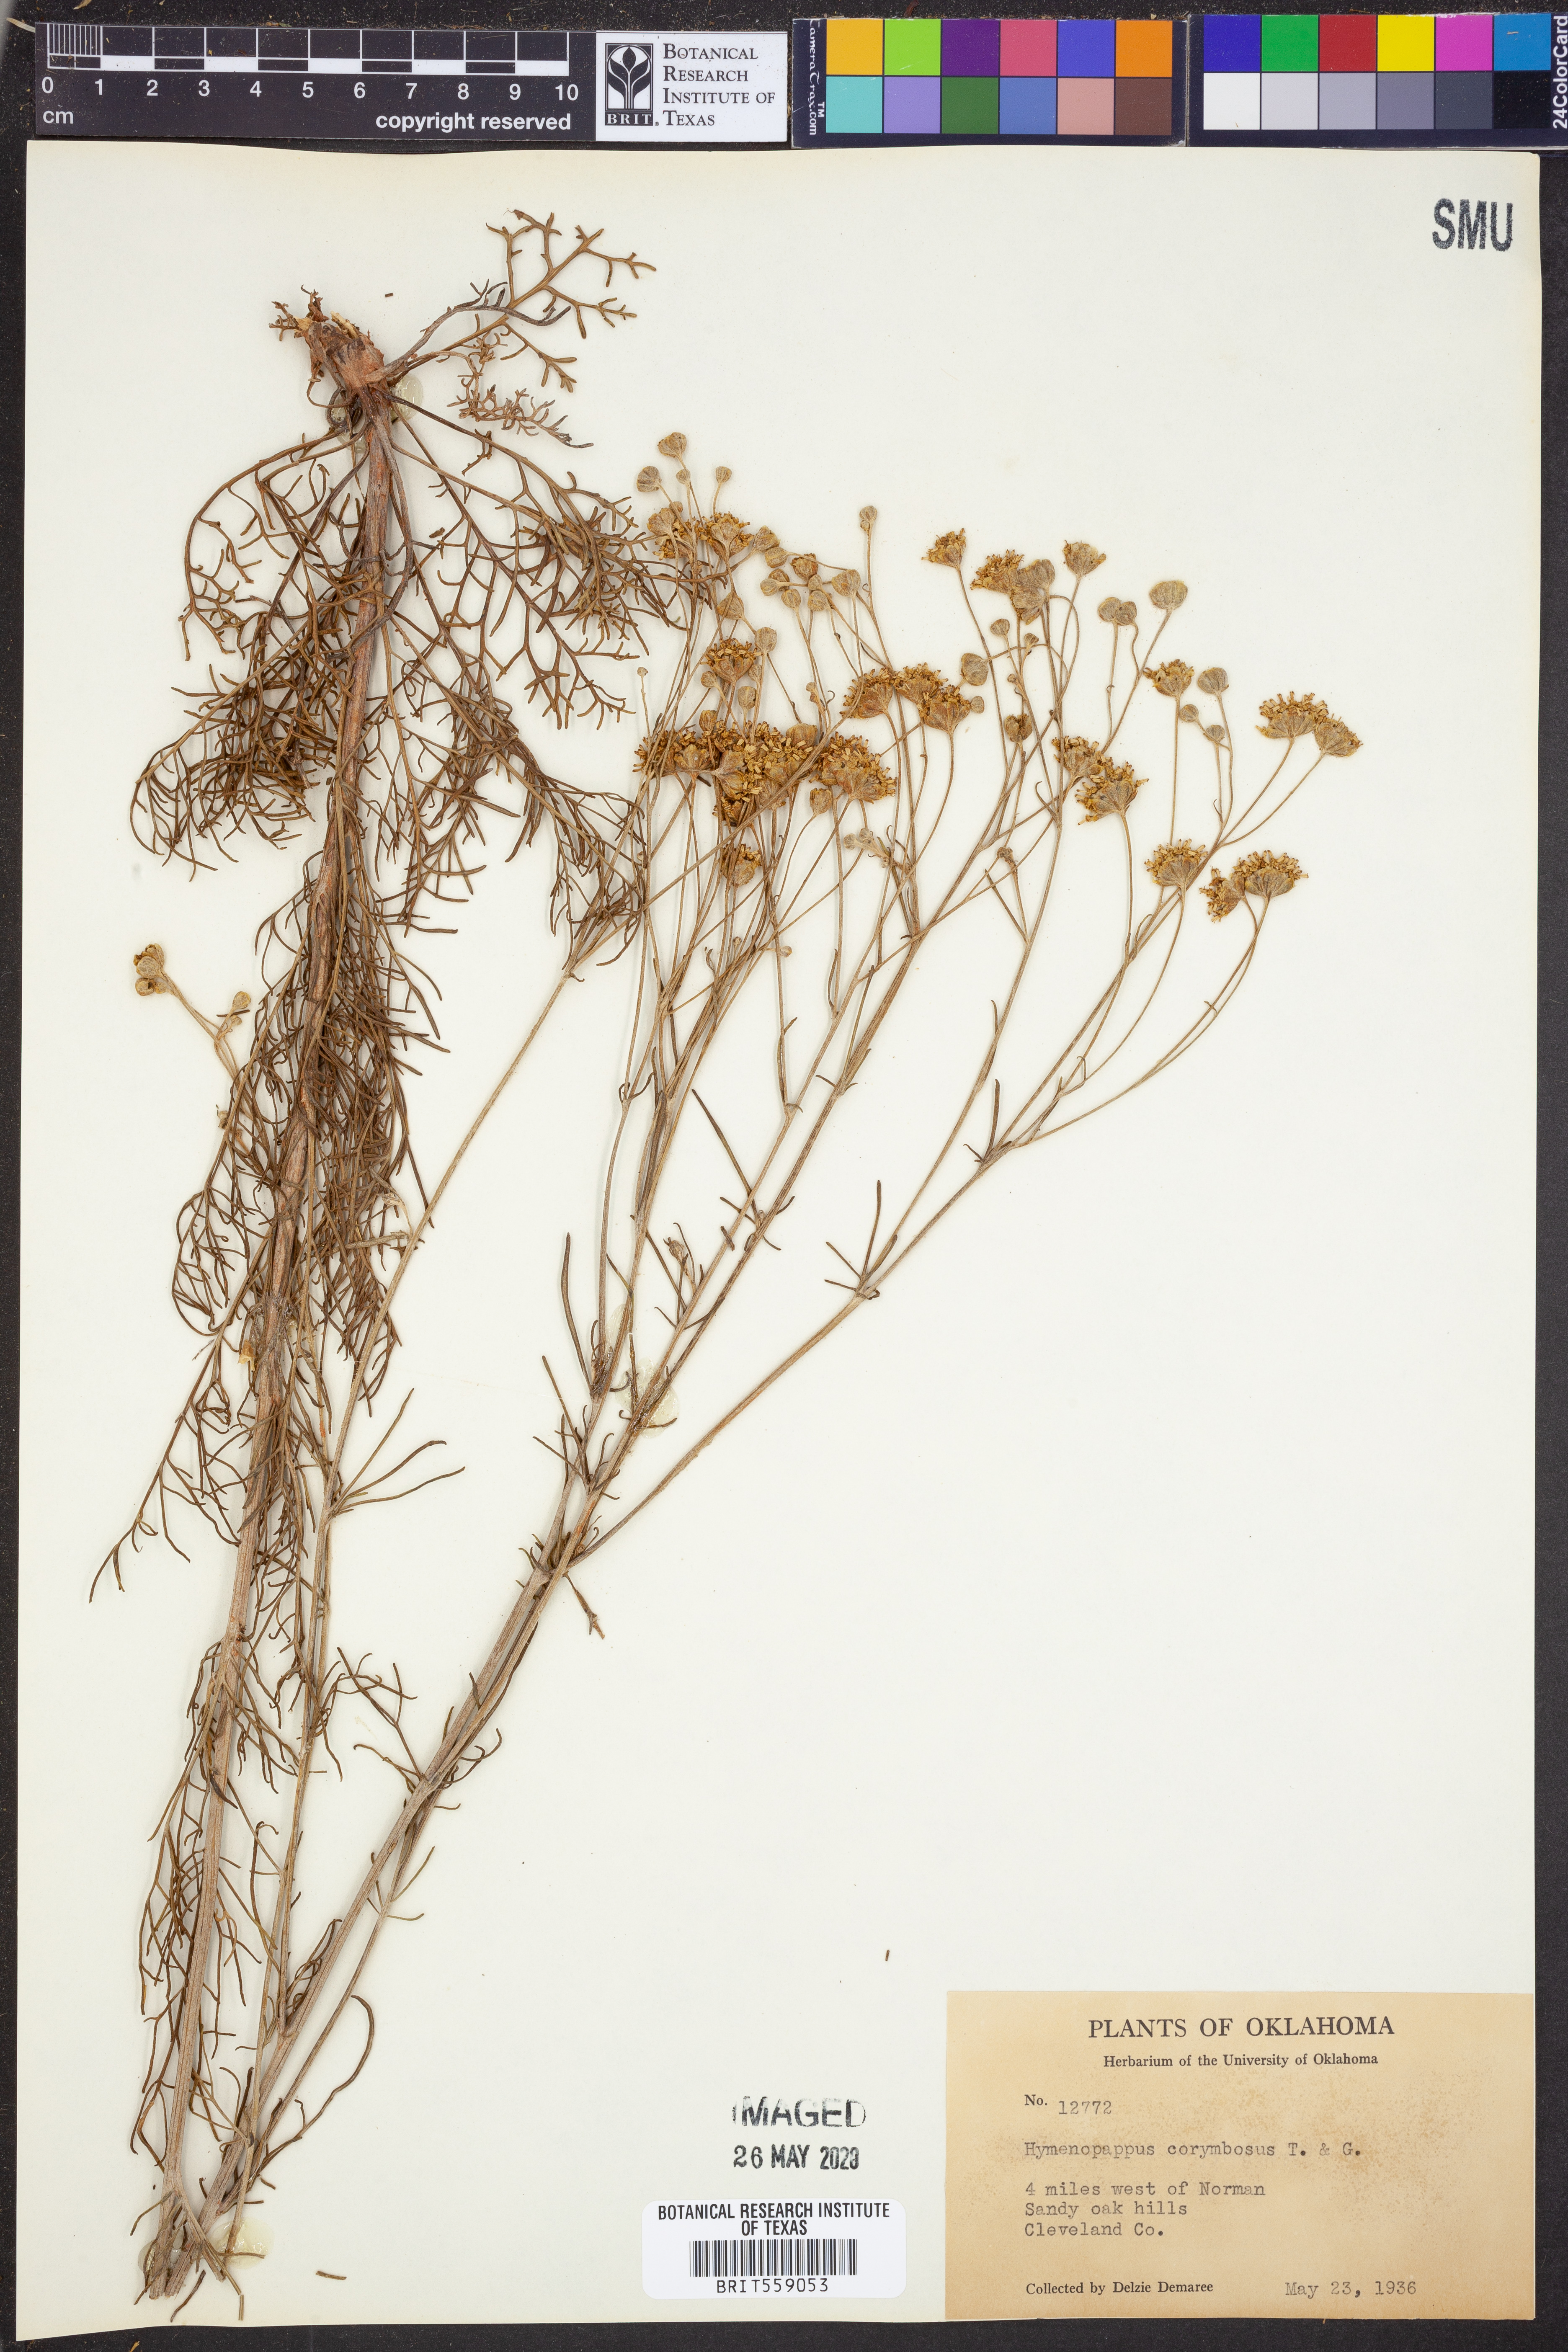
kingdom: Plantae
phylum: Tracheophyta
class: Magnoliopsida
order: Asterales
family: Asteraceae
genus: Hymenopappus
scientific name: Hymenopappus scabiosaeus
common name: Carolina woollywhite
